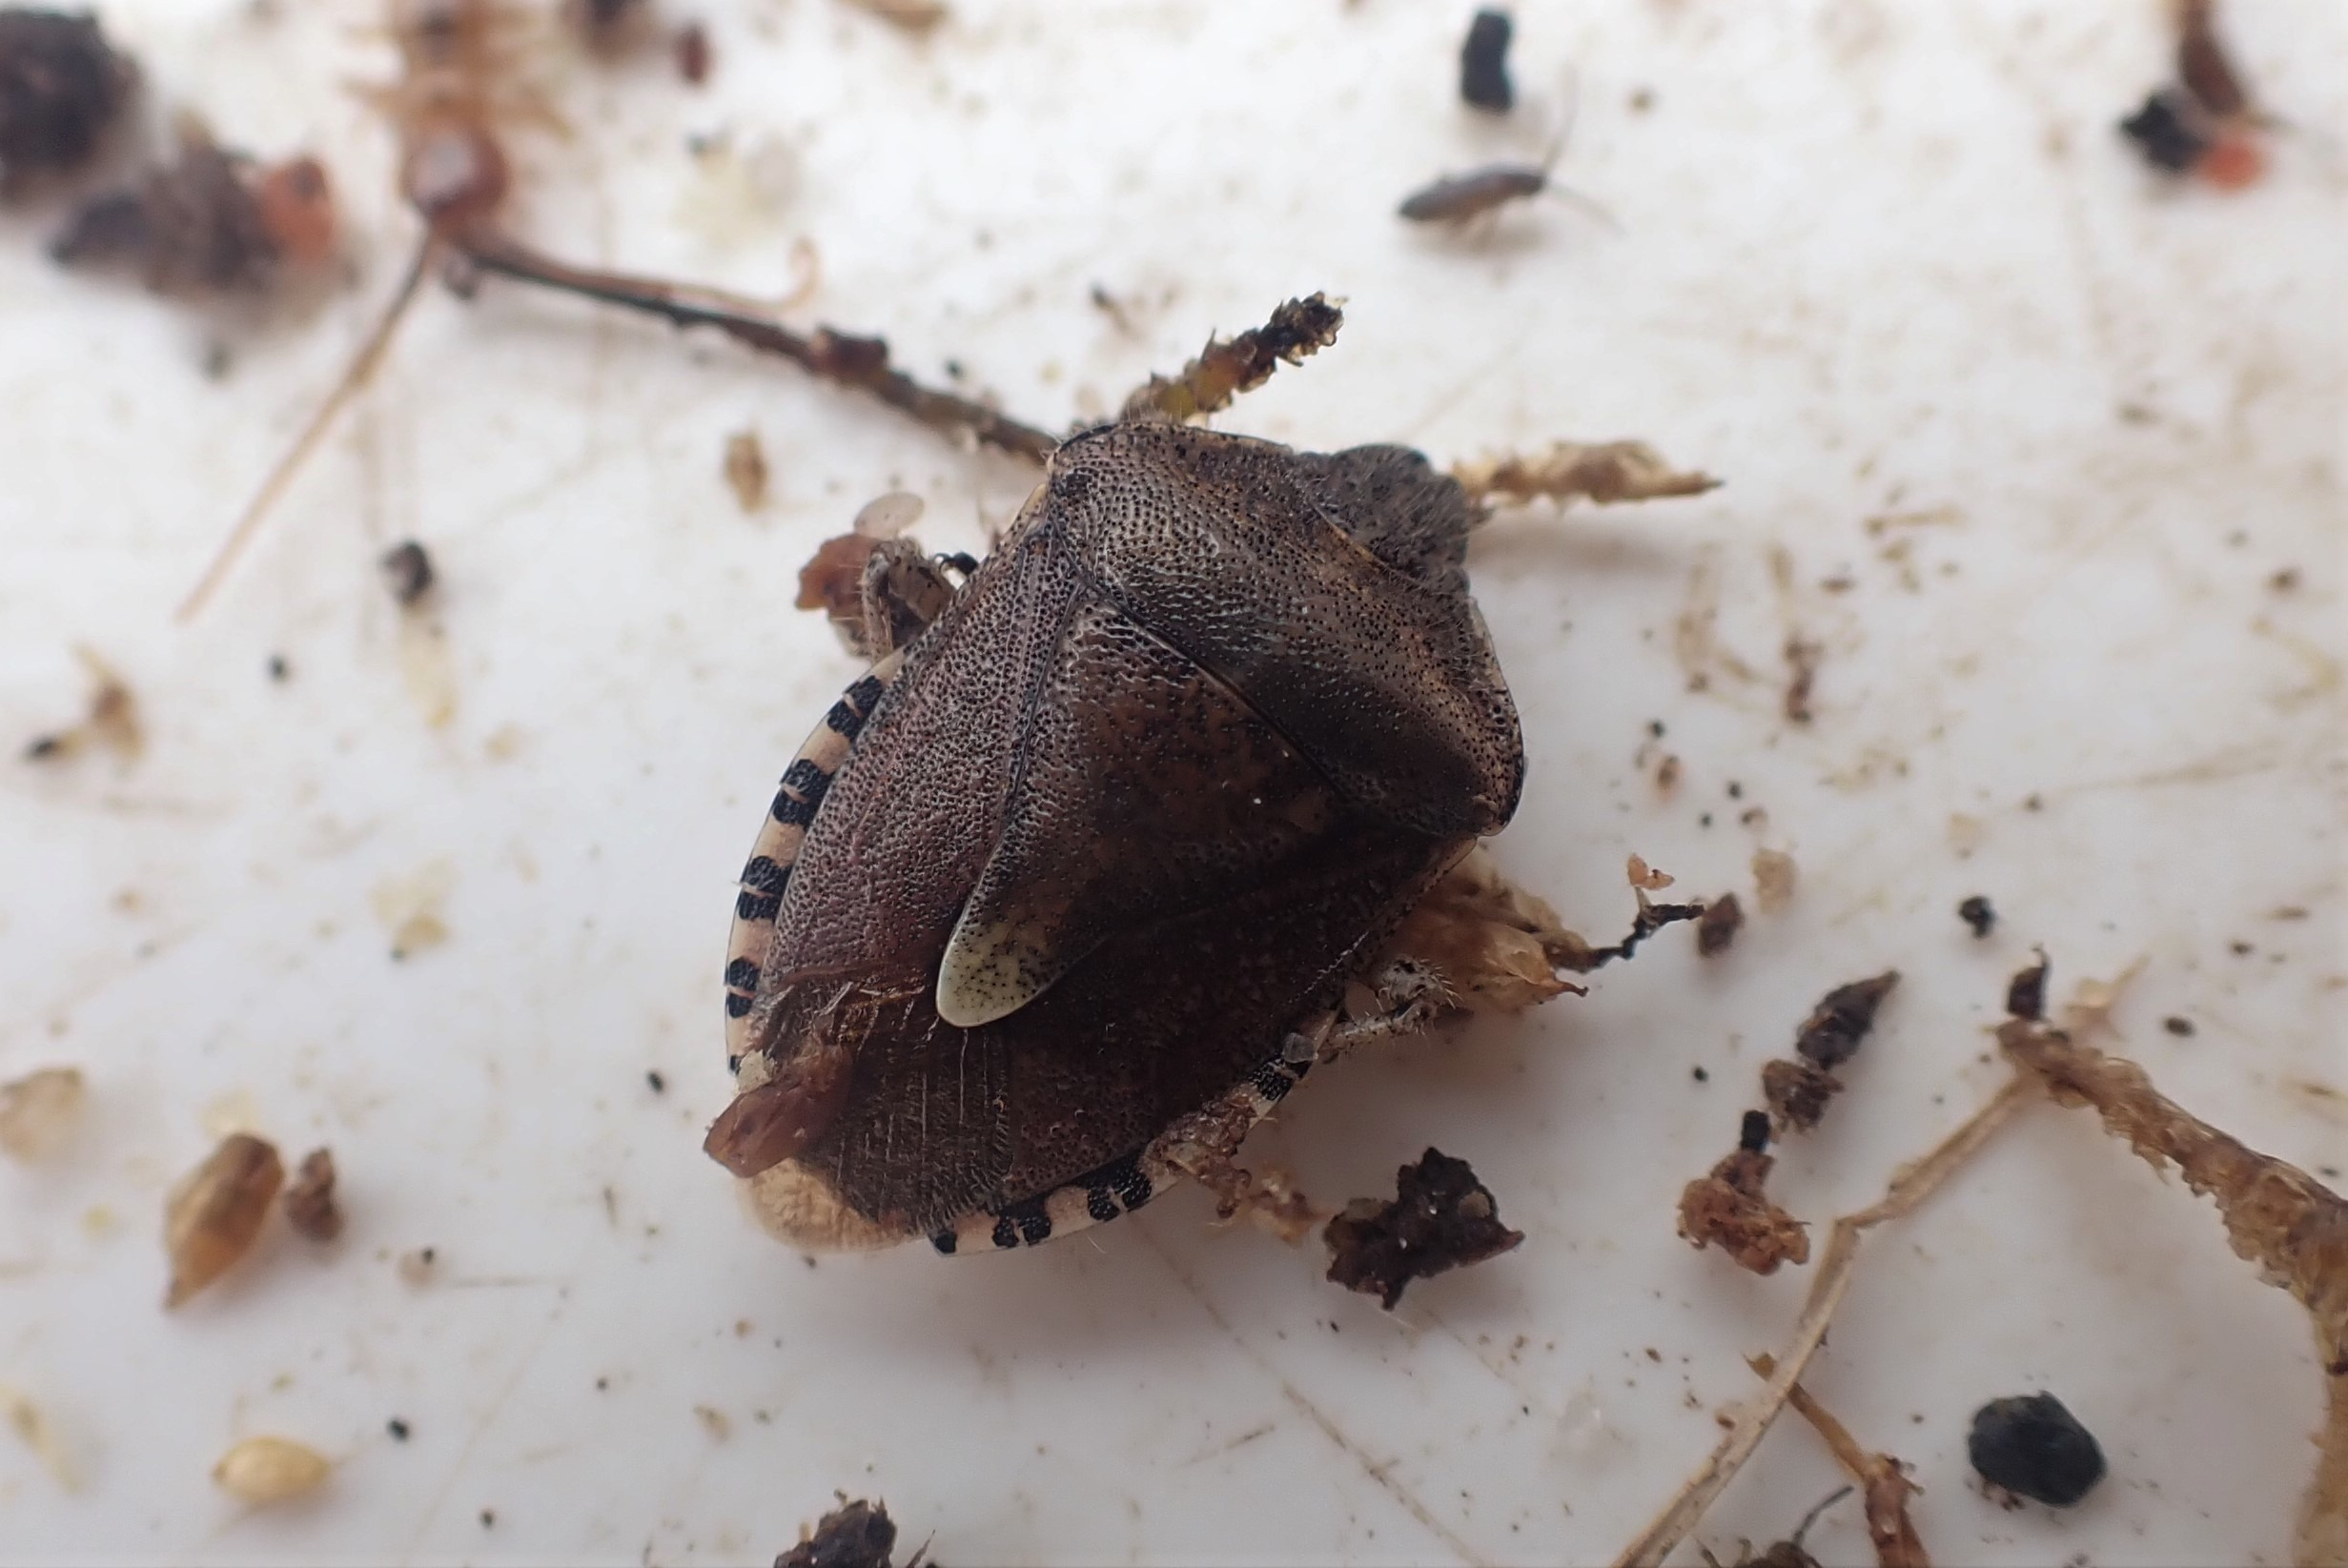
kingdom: Animalia
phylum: Arthropoda
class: Insecta
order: Hemiptera
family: Pentatomidae
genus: Dolycoris
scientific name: Dolycoris baccarum
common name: Almindelig bærtæge
